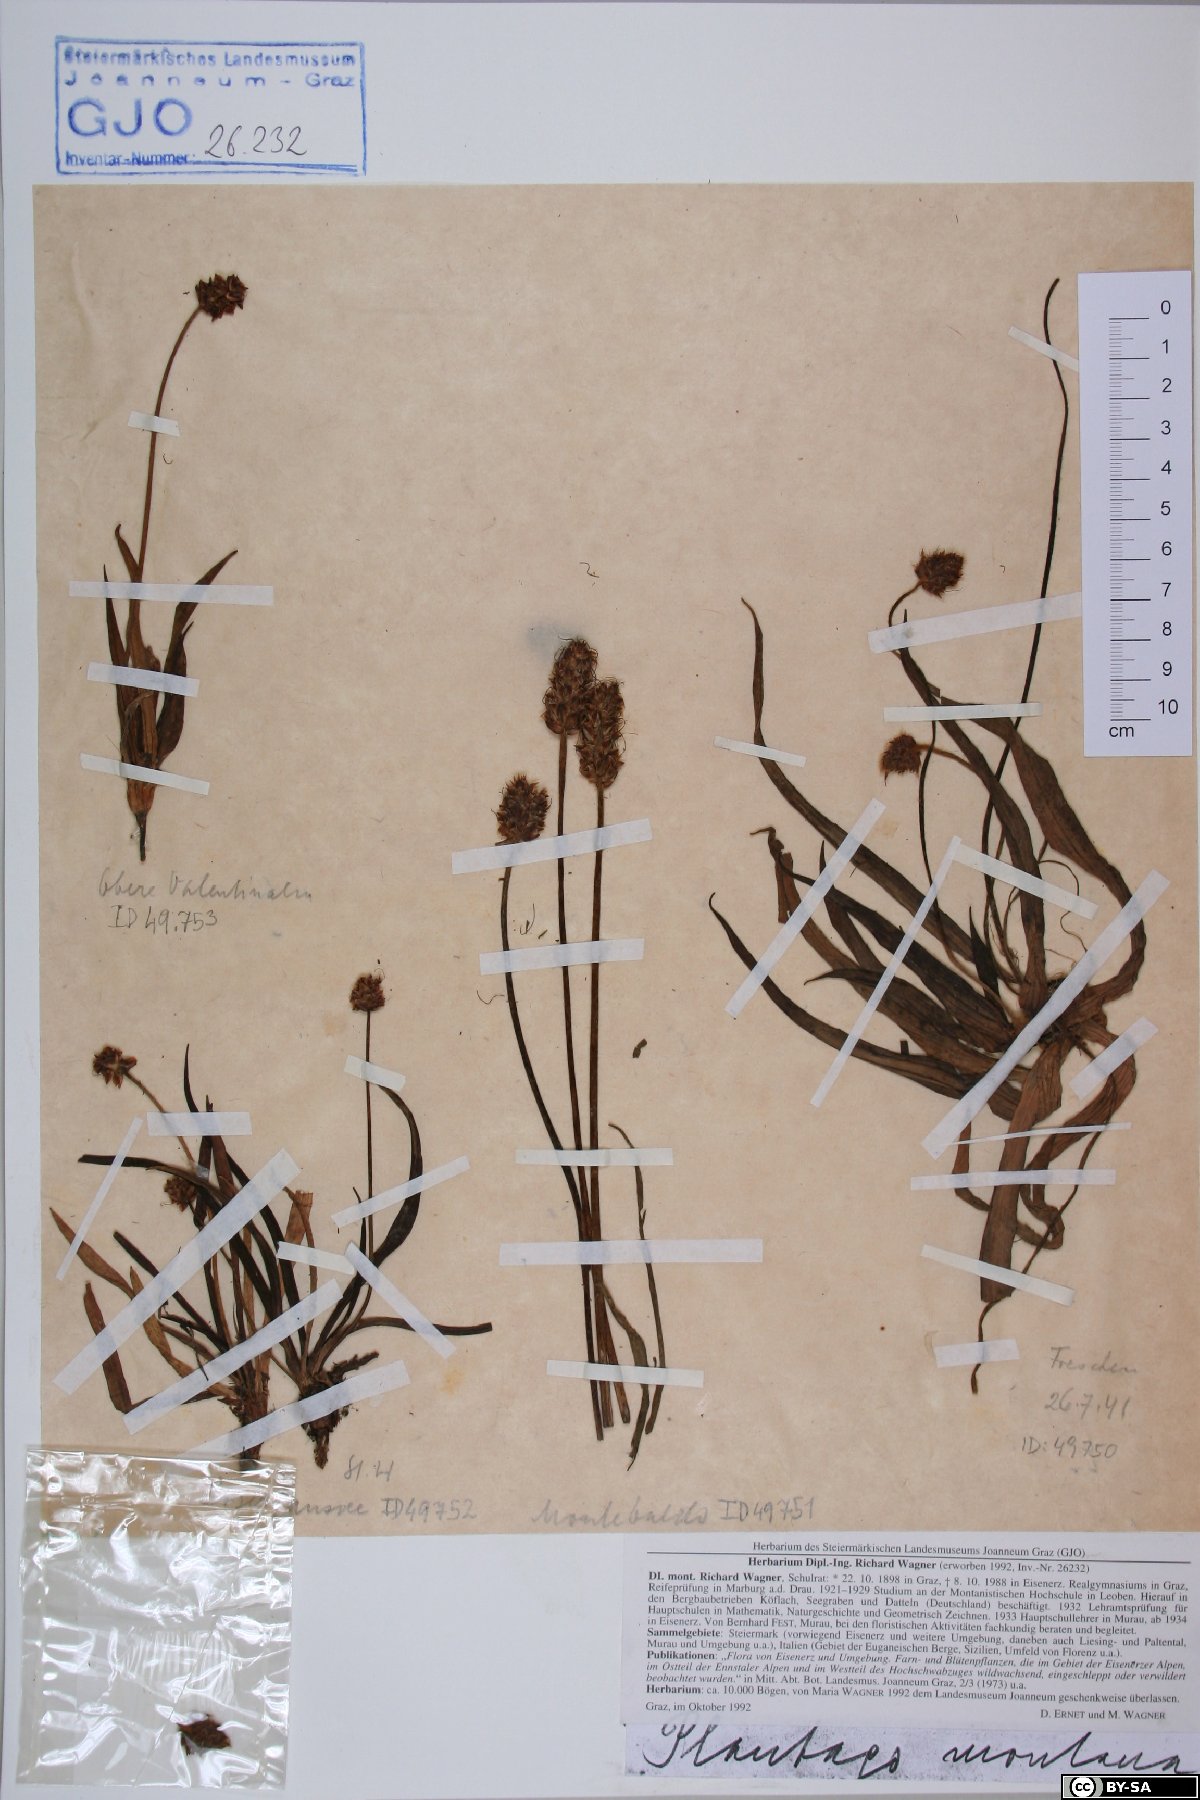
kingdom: Plantae
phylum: Tracheophyta
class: Magnoliopsida
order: Lamiales
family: Plantaginaceae
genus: Plantago
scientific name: Plantago atrata
